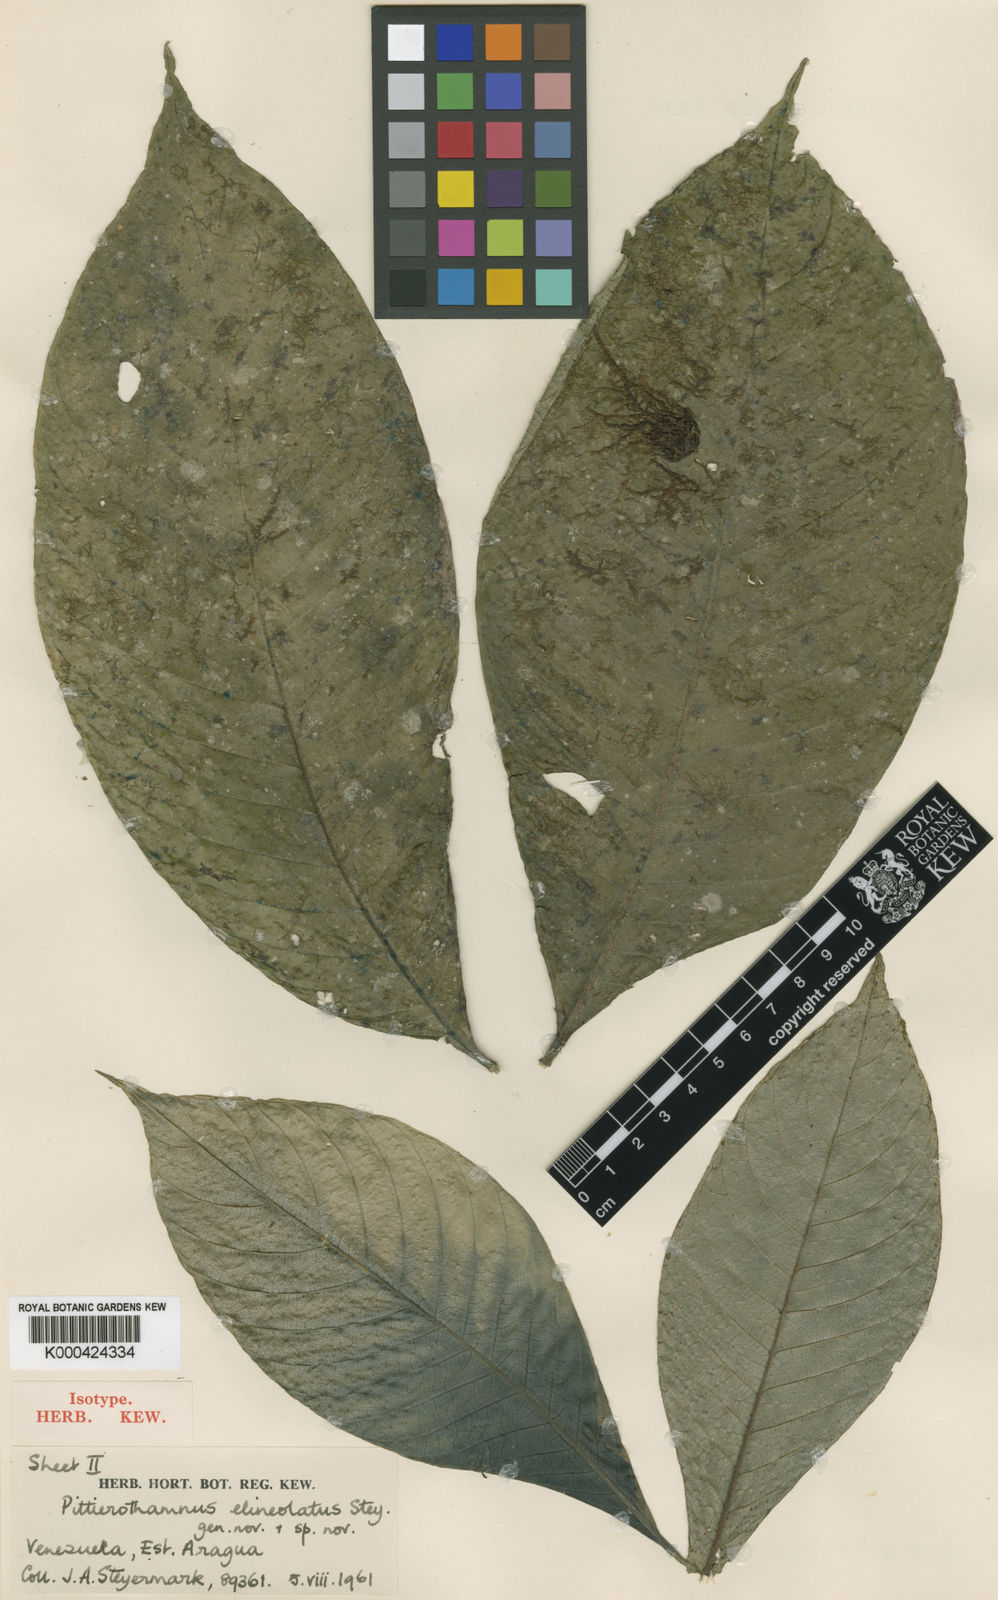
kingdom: Plantae
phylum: Tracheophyta
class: Magnoliopsida
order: Gentianales
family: Rubiaceae
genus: Amphidasya
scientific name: Amphidasya venezuelensis
